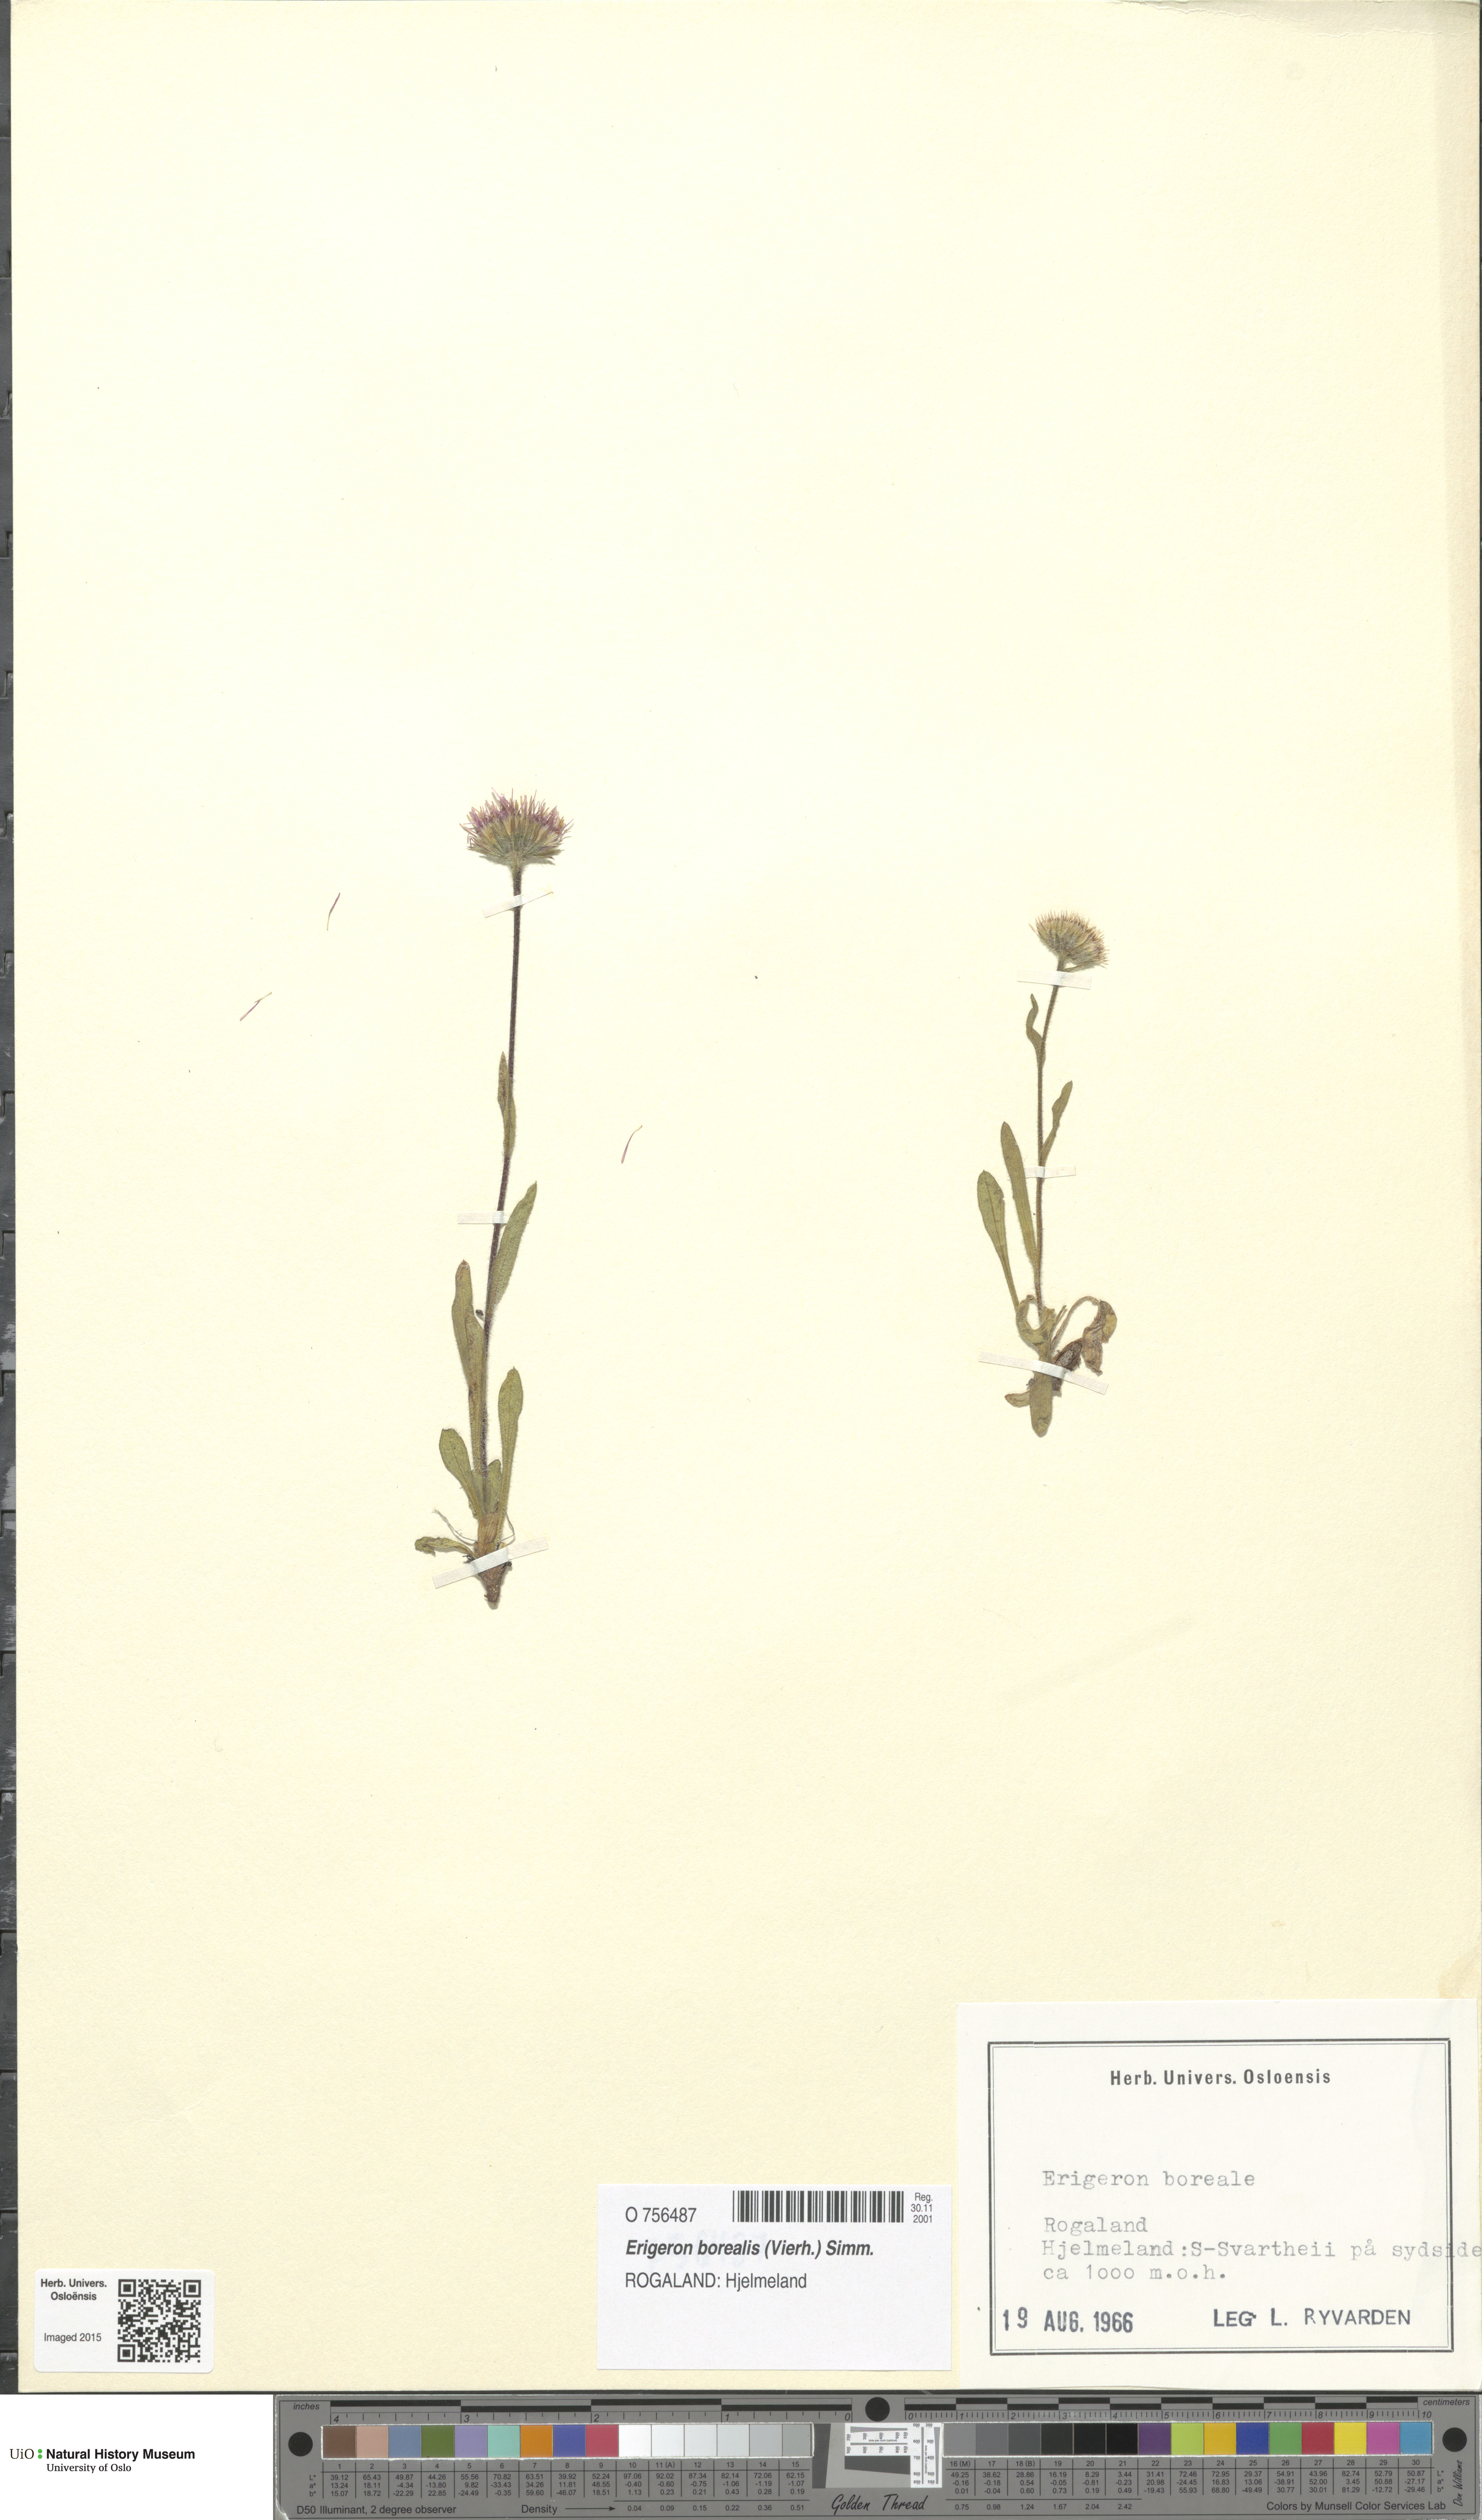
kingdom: Plantae
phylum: Tracheophyta
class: Magnoliopsida
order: Asterales
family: Asteraceae
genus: Erigeron
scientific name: Erigeron borealis
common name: Alpine fleabane
